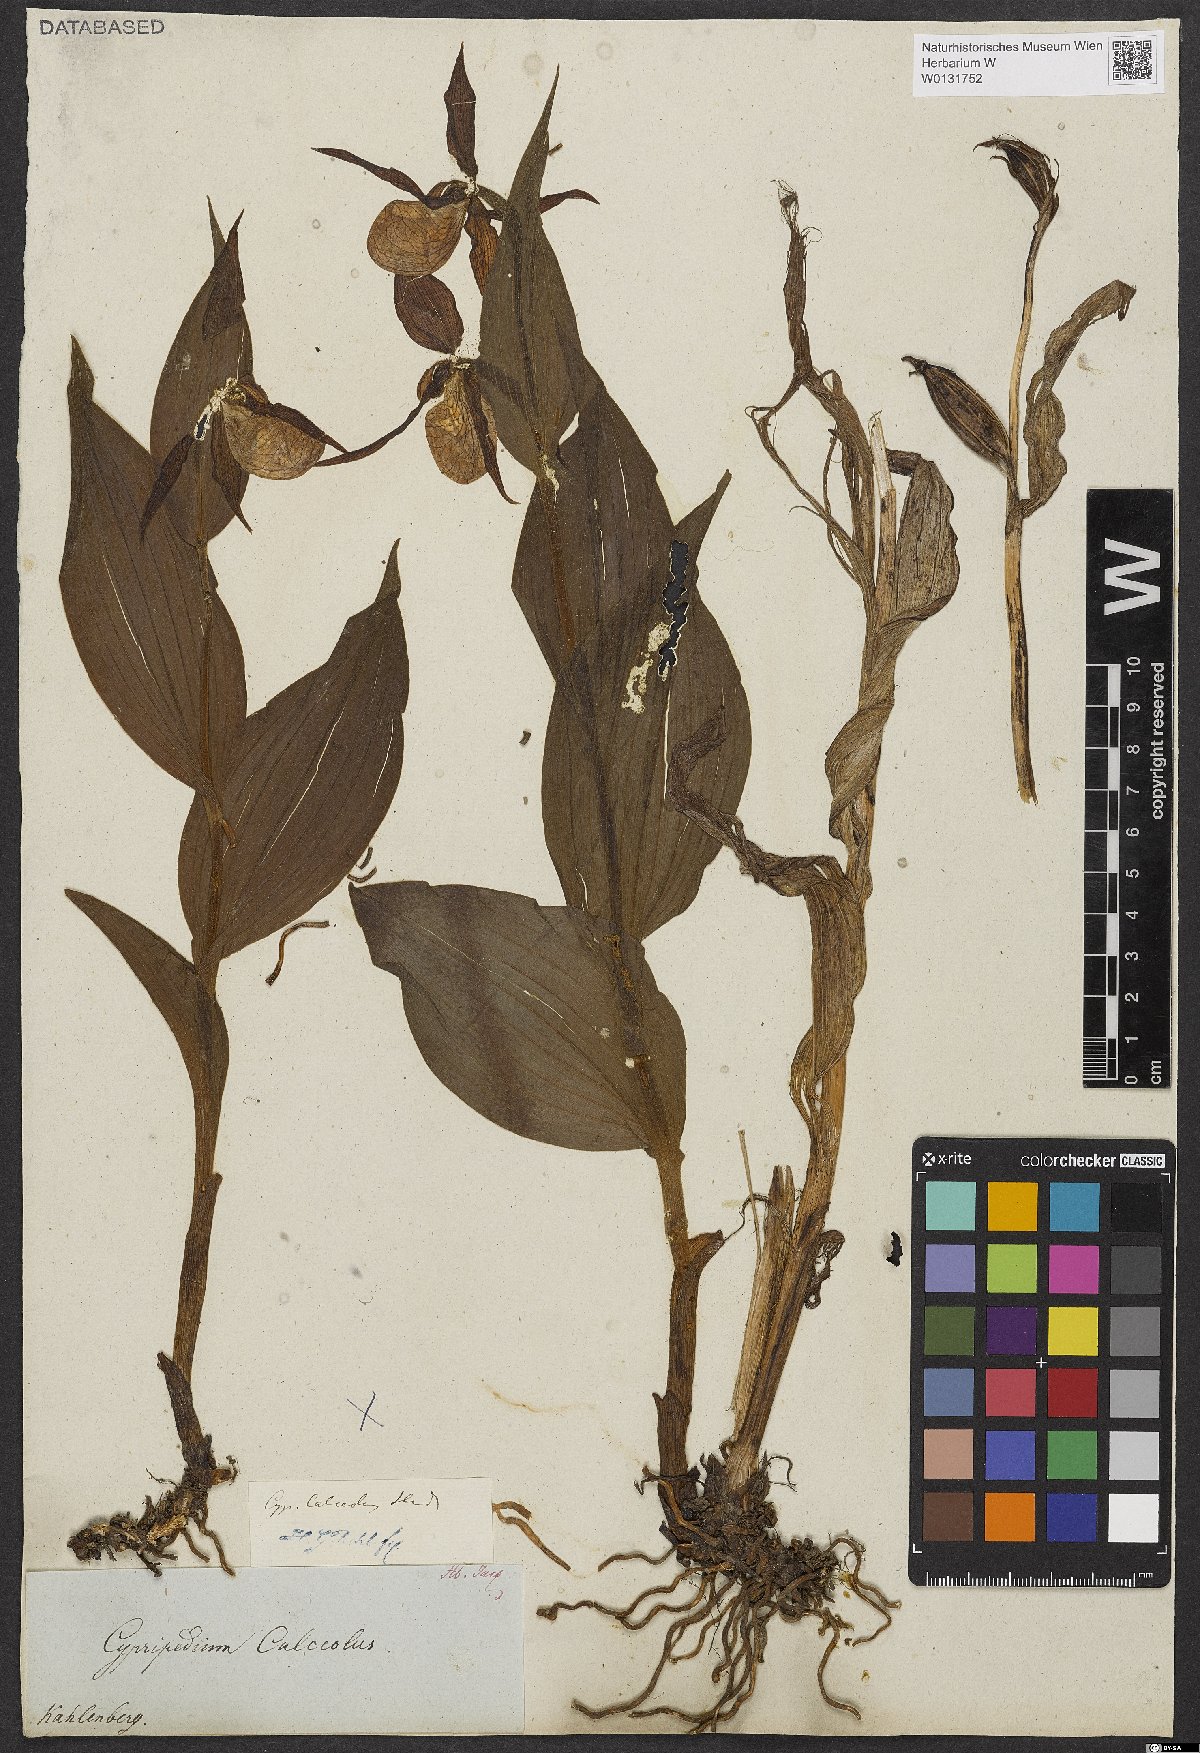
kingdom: Plantae
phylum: Tracheophyta
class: Liliopsida
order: Asparagales
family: Orchidaceae
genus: Cypripedium
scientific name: Cypripedium calceolus
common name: Lady's-slipper
